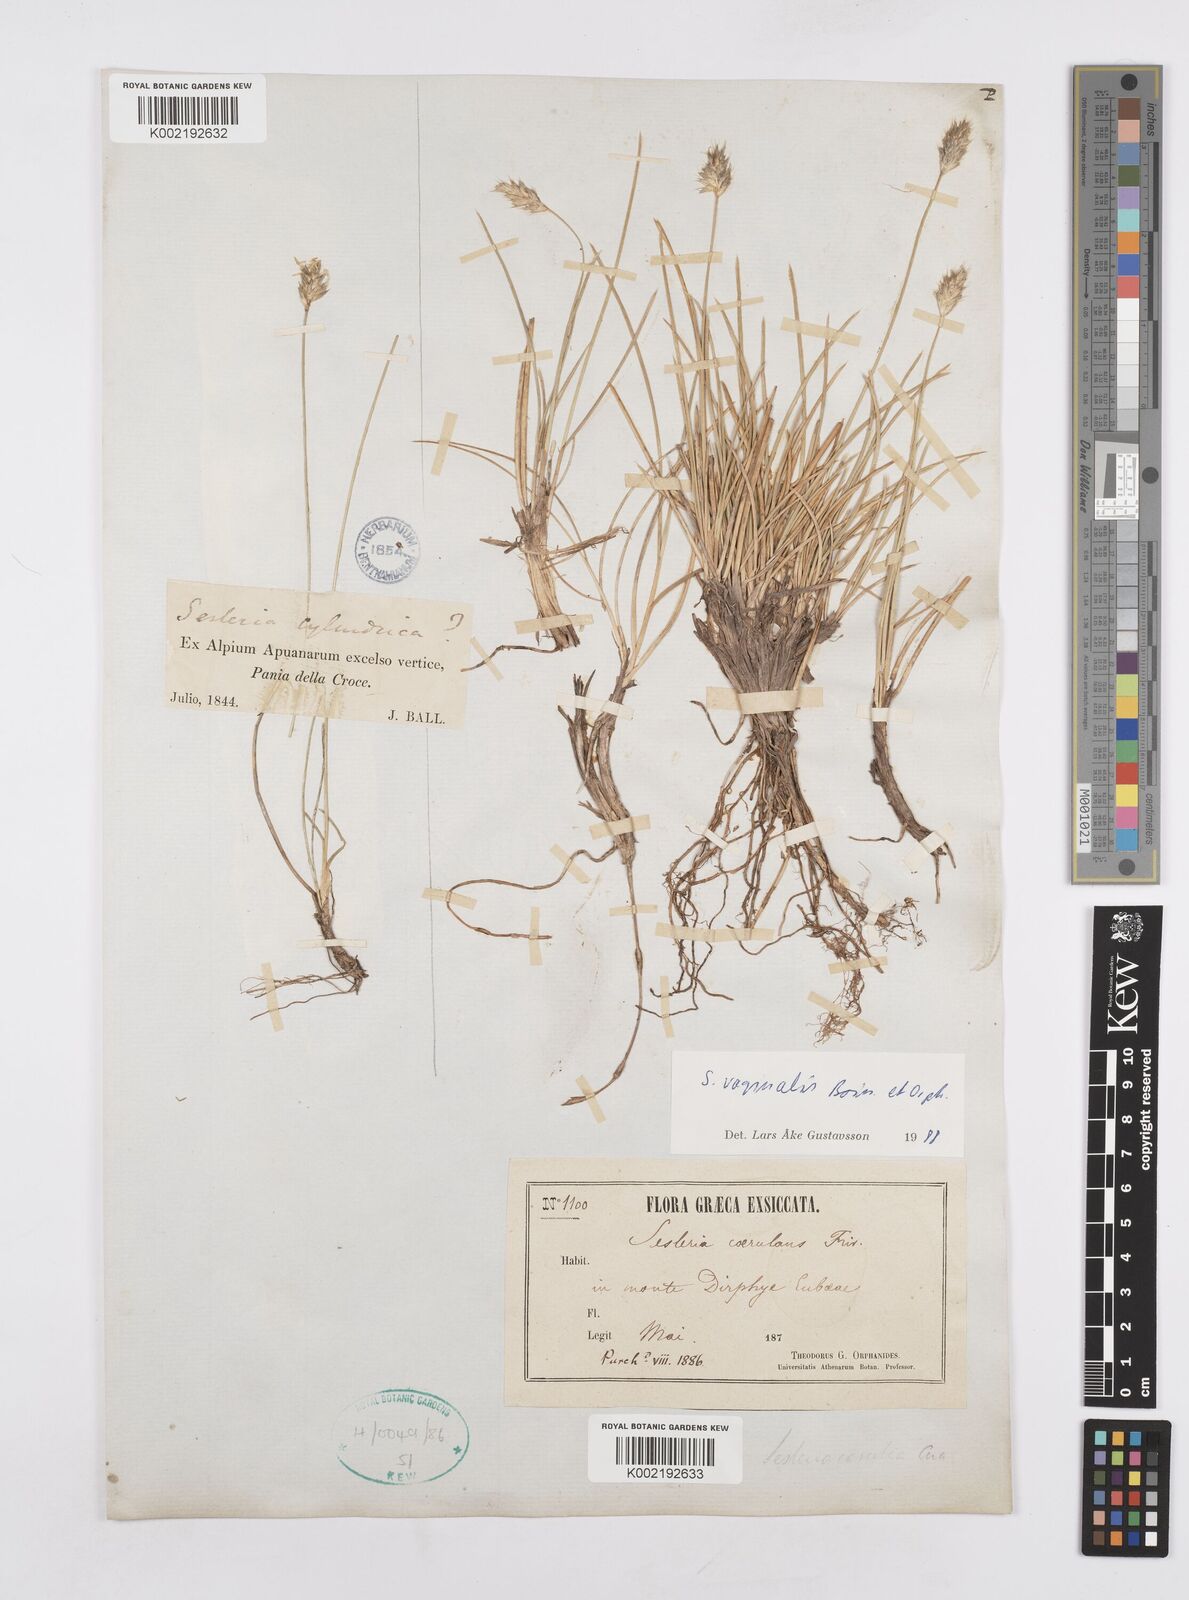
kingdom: Plantae
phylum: Tracheophyta
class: Liliopsida
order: Poales
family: Poaceae
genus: Sesleria
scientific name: Sesleria vaginalis
